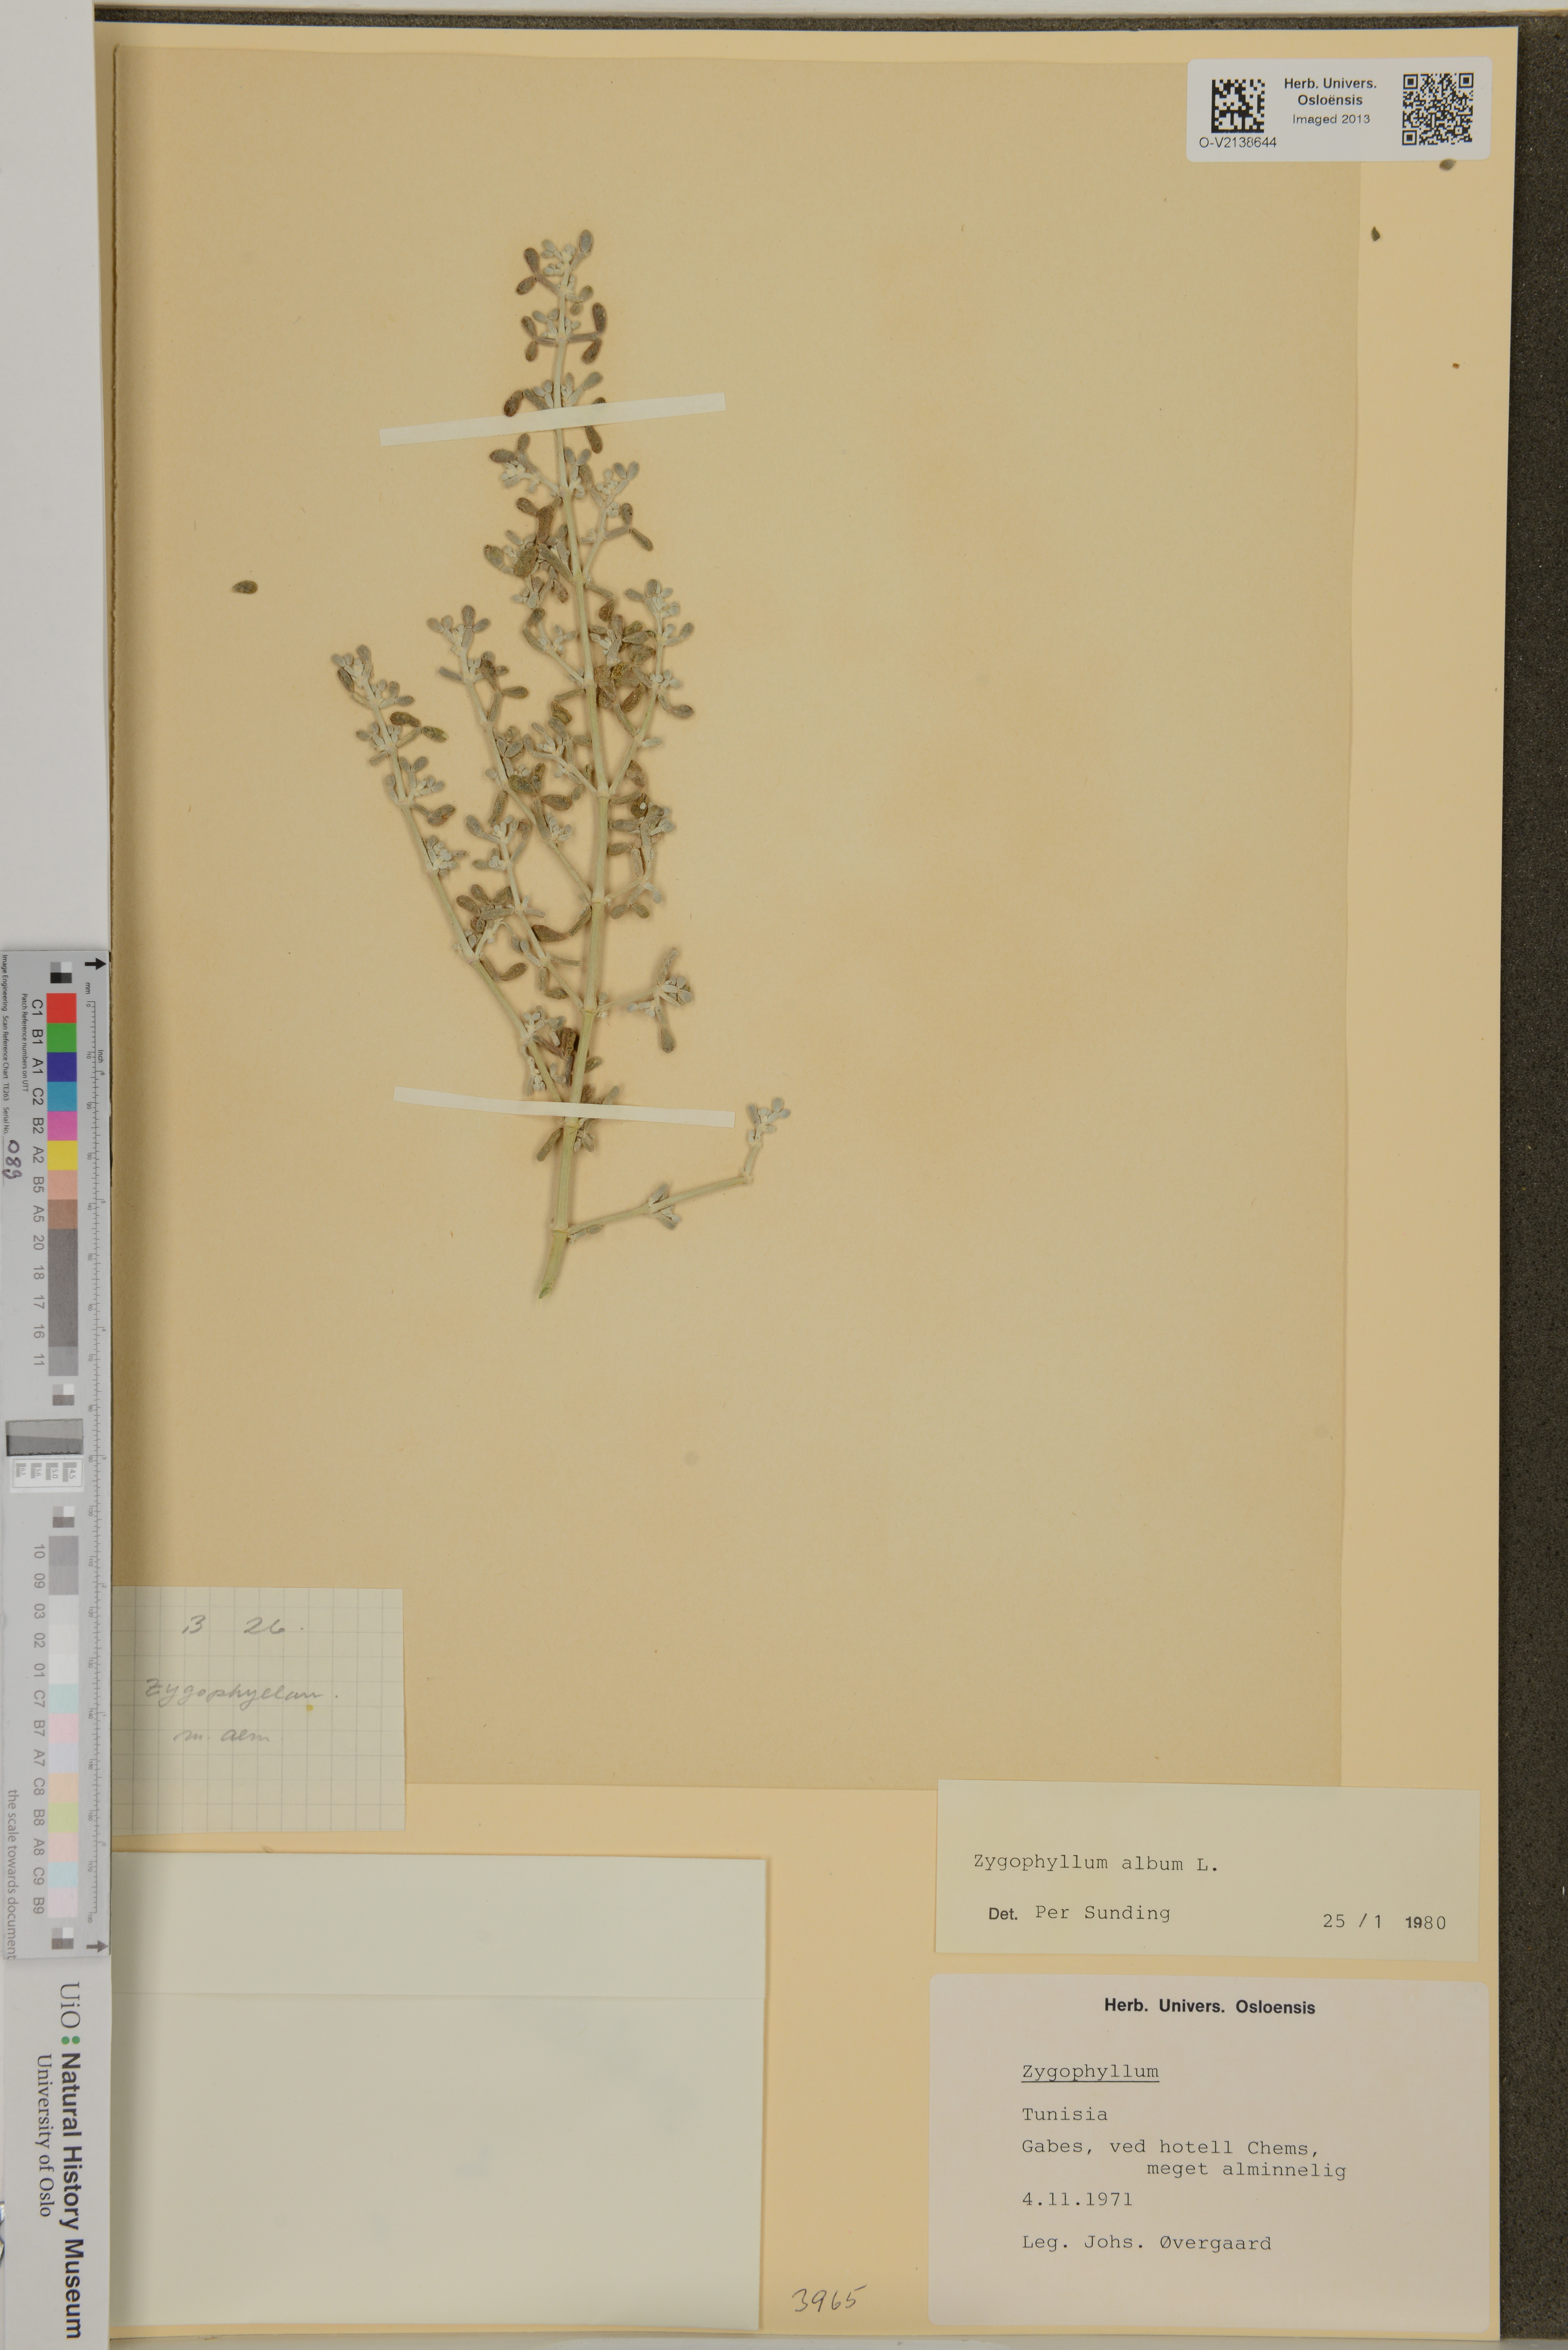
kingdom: Plantae
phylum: Tracheophyta
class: Magnoliopsida
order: Zygophyllales
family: Zygophyllaceae
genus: Tetraena
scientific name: Tetraena alba
